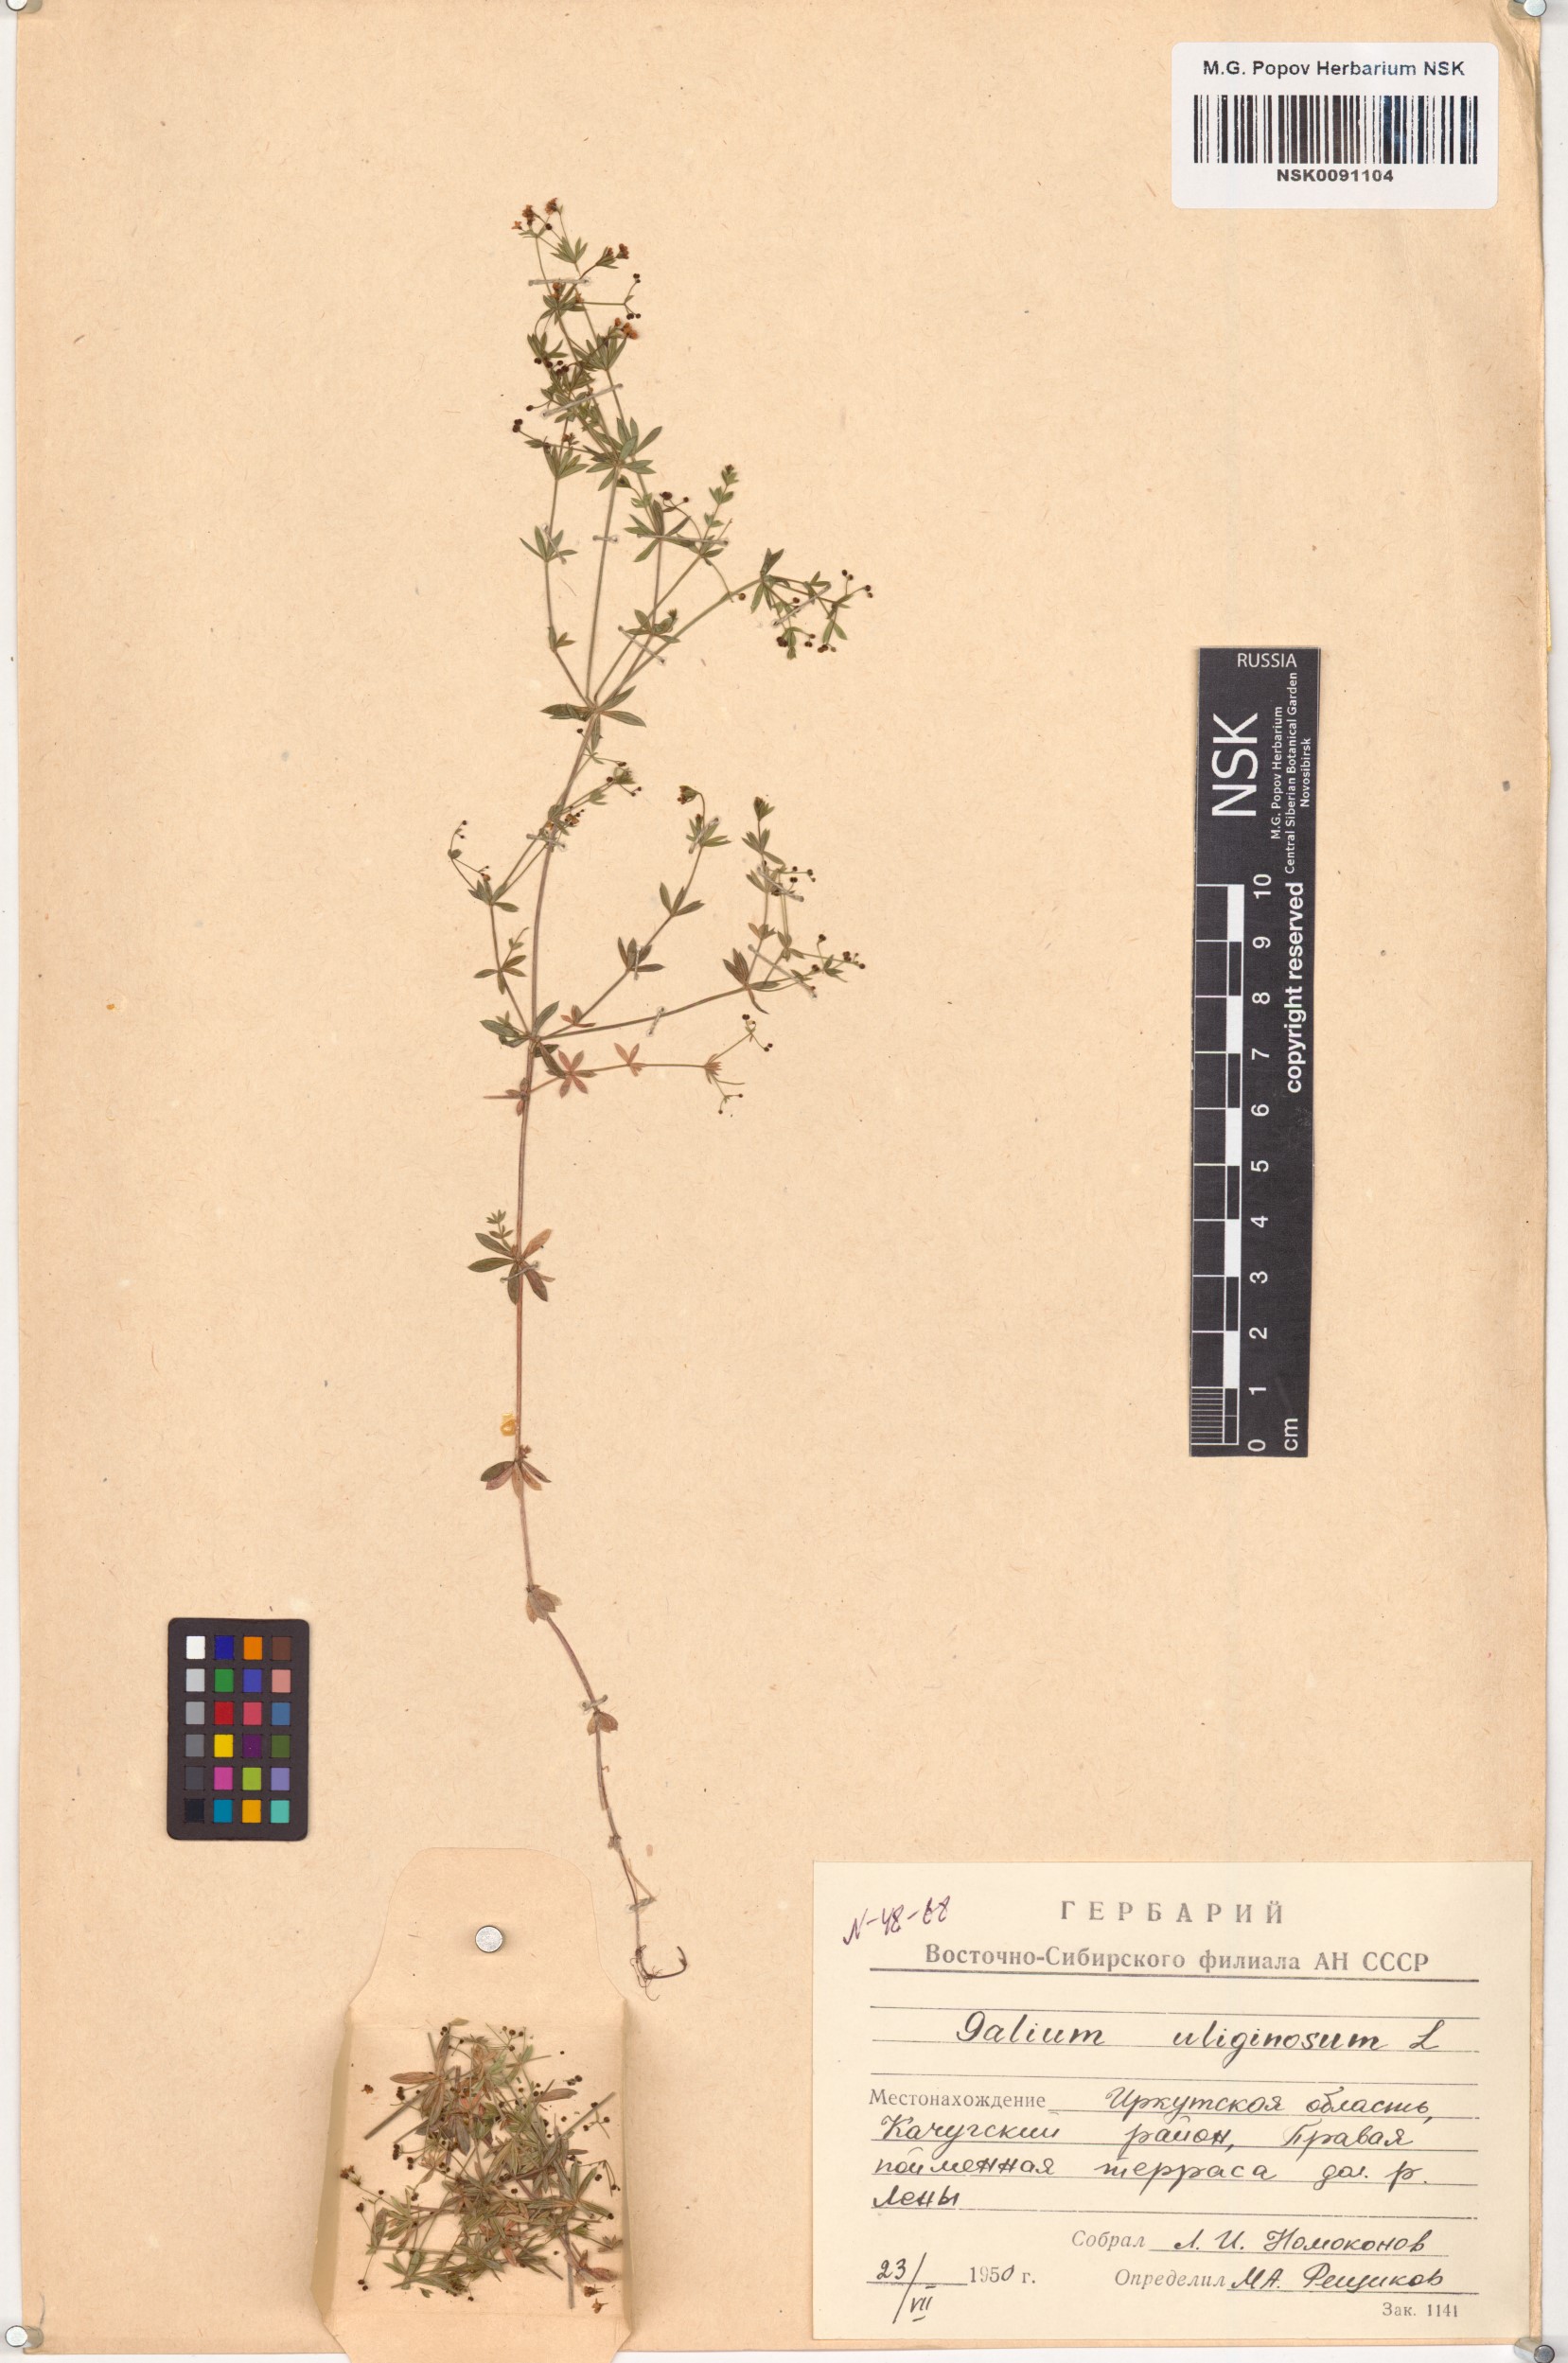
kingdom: Plantae
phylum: Tracheophyta
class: Magnoliopsida
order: Gentianales
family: Rubiaceae
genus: Galium
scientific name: Galium uliginosum
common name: Fen bedstraw
